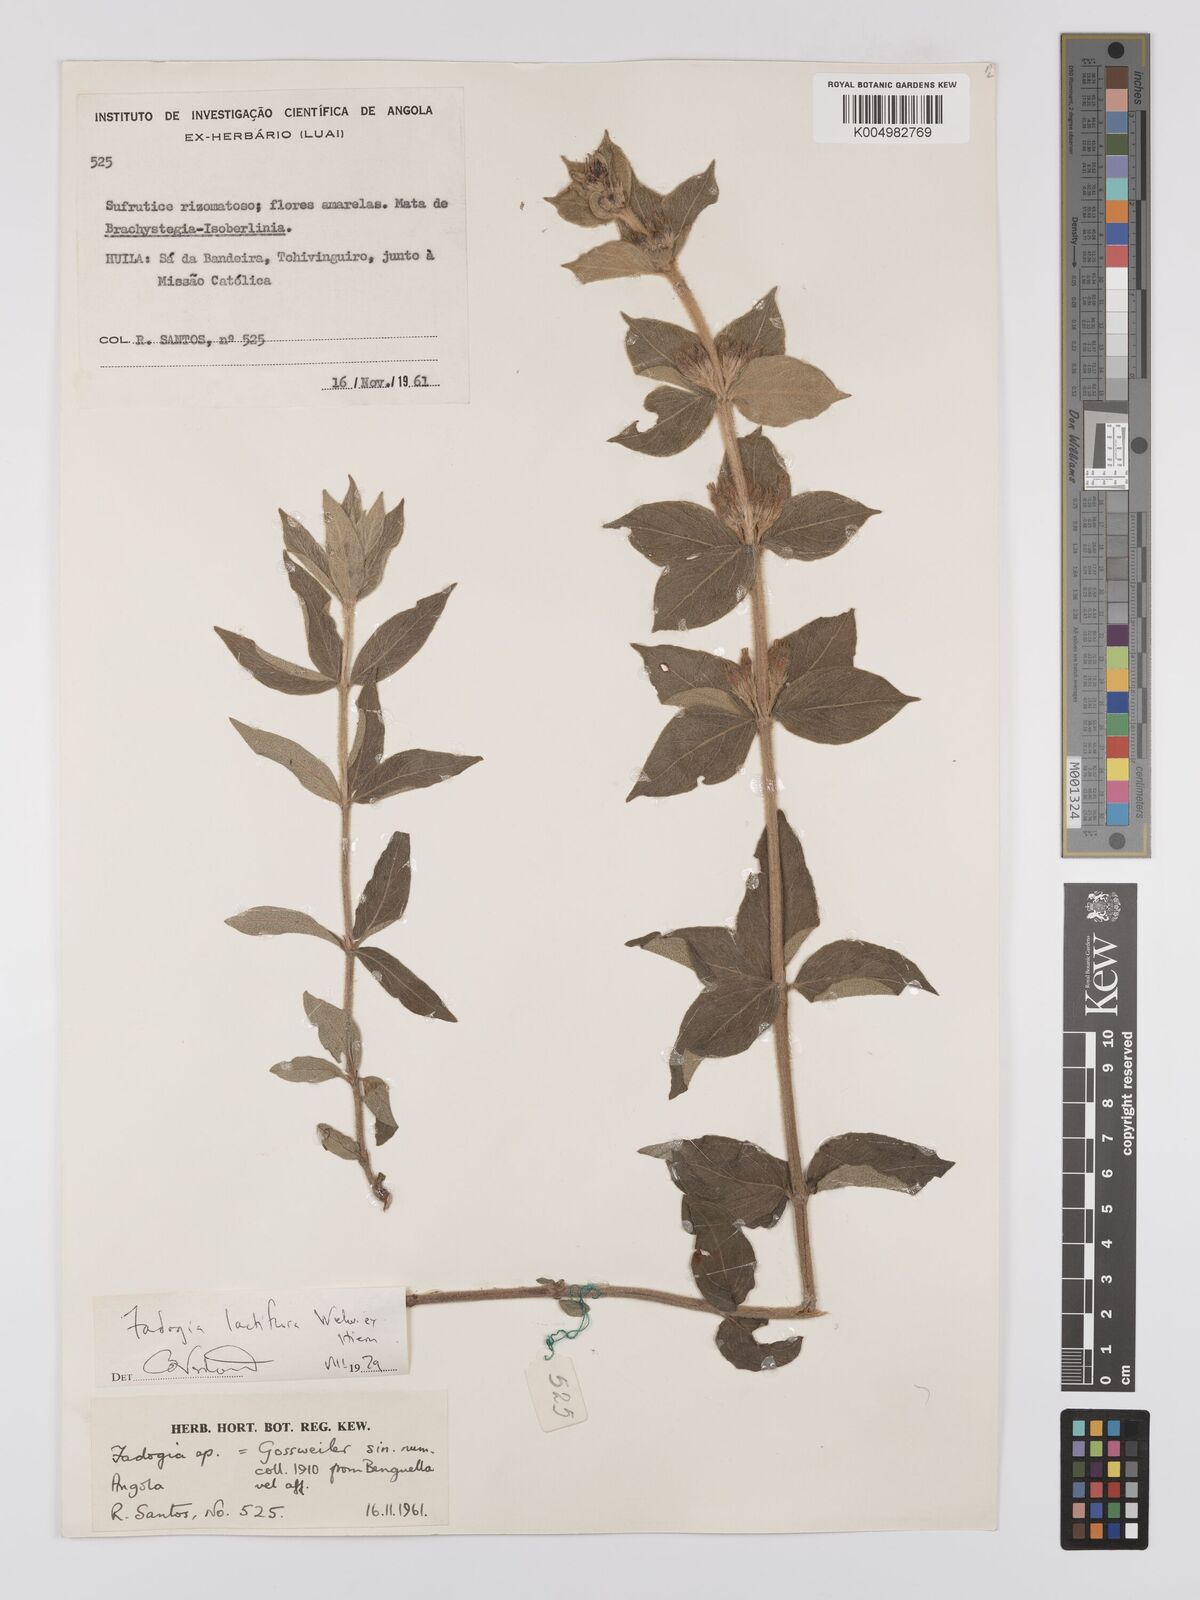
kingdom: Plantae
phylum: Tracheophyta
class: Magnoliopsida
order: Gentianales
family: Rubiaceae
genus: Fadogia
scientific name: Fadogia lactiflora
